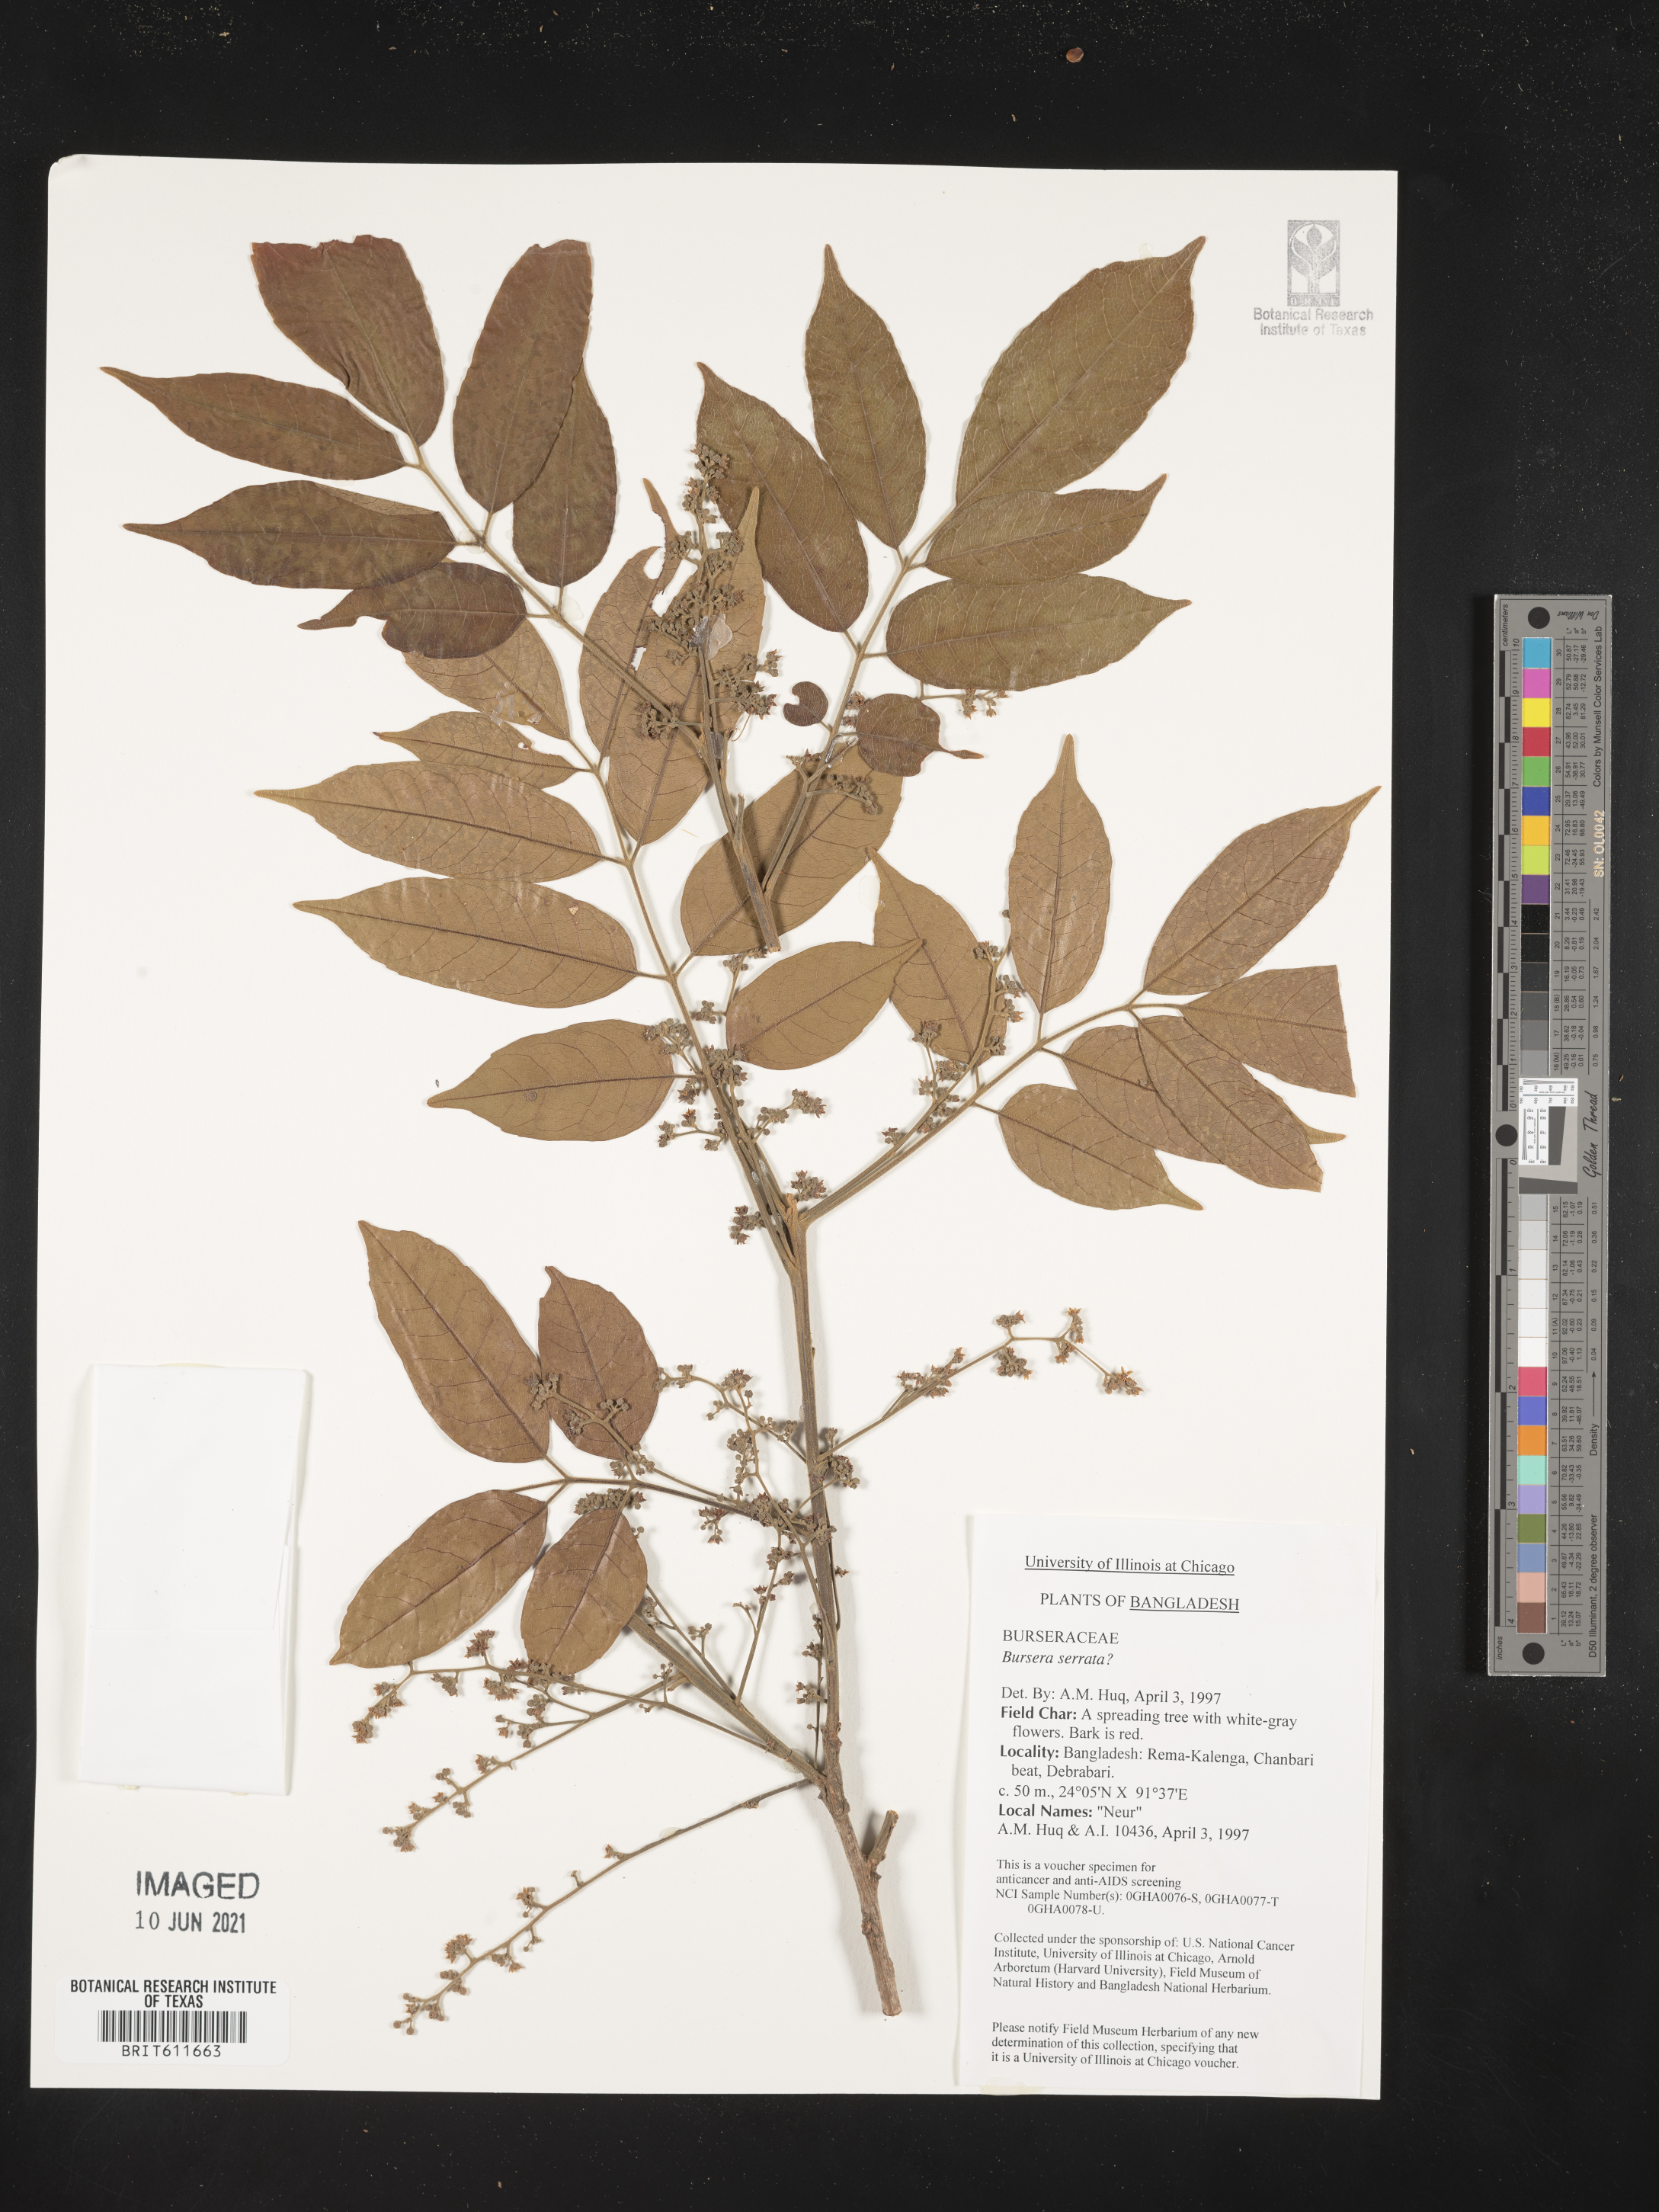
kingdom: Plantae
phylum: Tracheophyta
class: Magnoliopsida
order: Sapindales
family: Burseraceae
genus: Protium
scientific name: Protium serratum
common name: Murtenga
